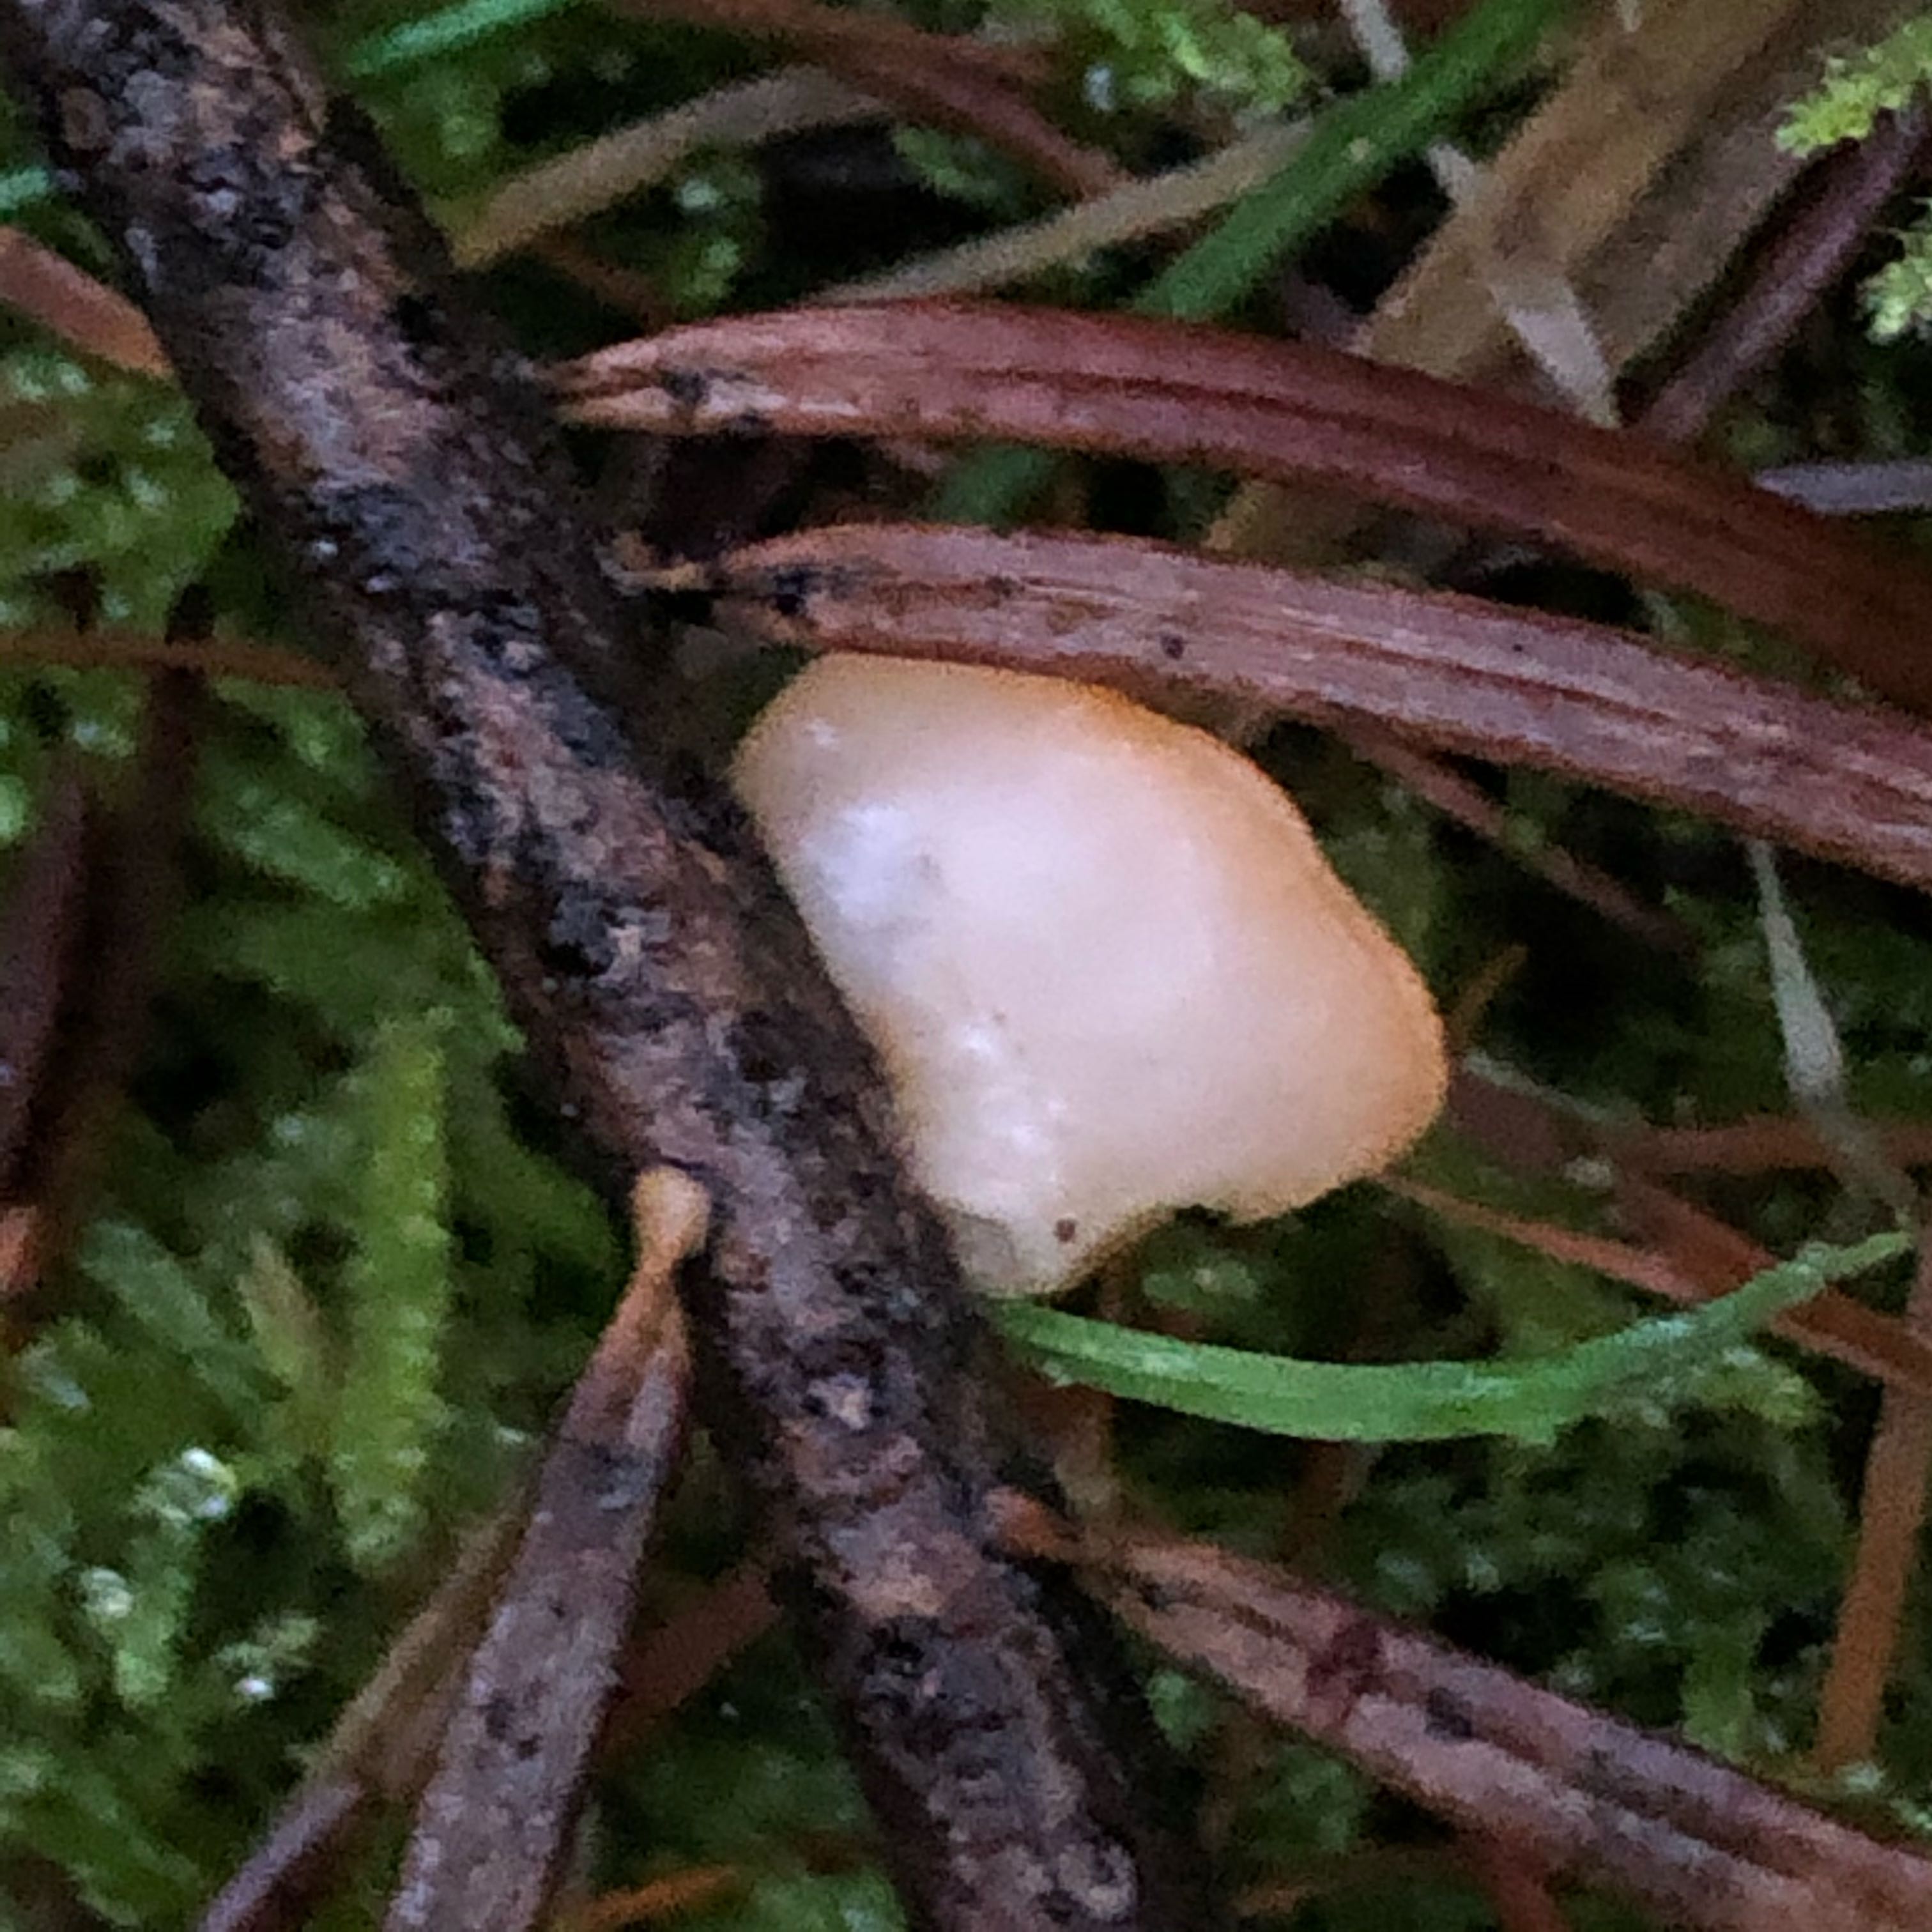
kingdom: Fungi
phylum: Ascomycota
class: Pezizomycetes
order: Pezizales
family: Sarcoscyphaceae
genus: Pithya
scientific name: Pithya vulgaris
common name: stor dukatbæger
